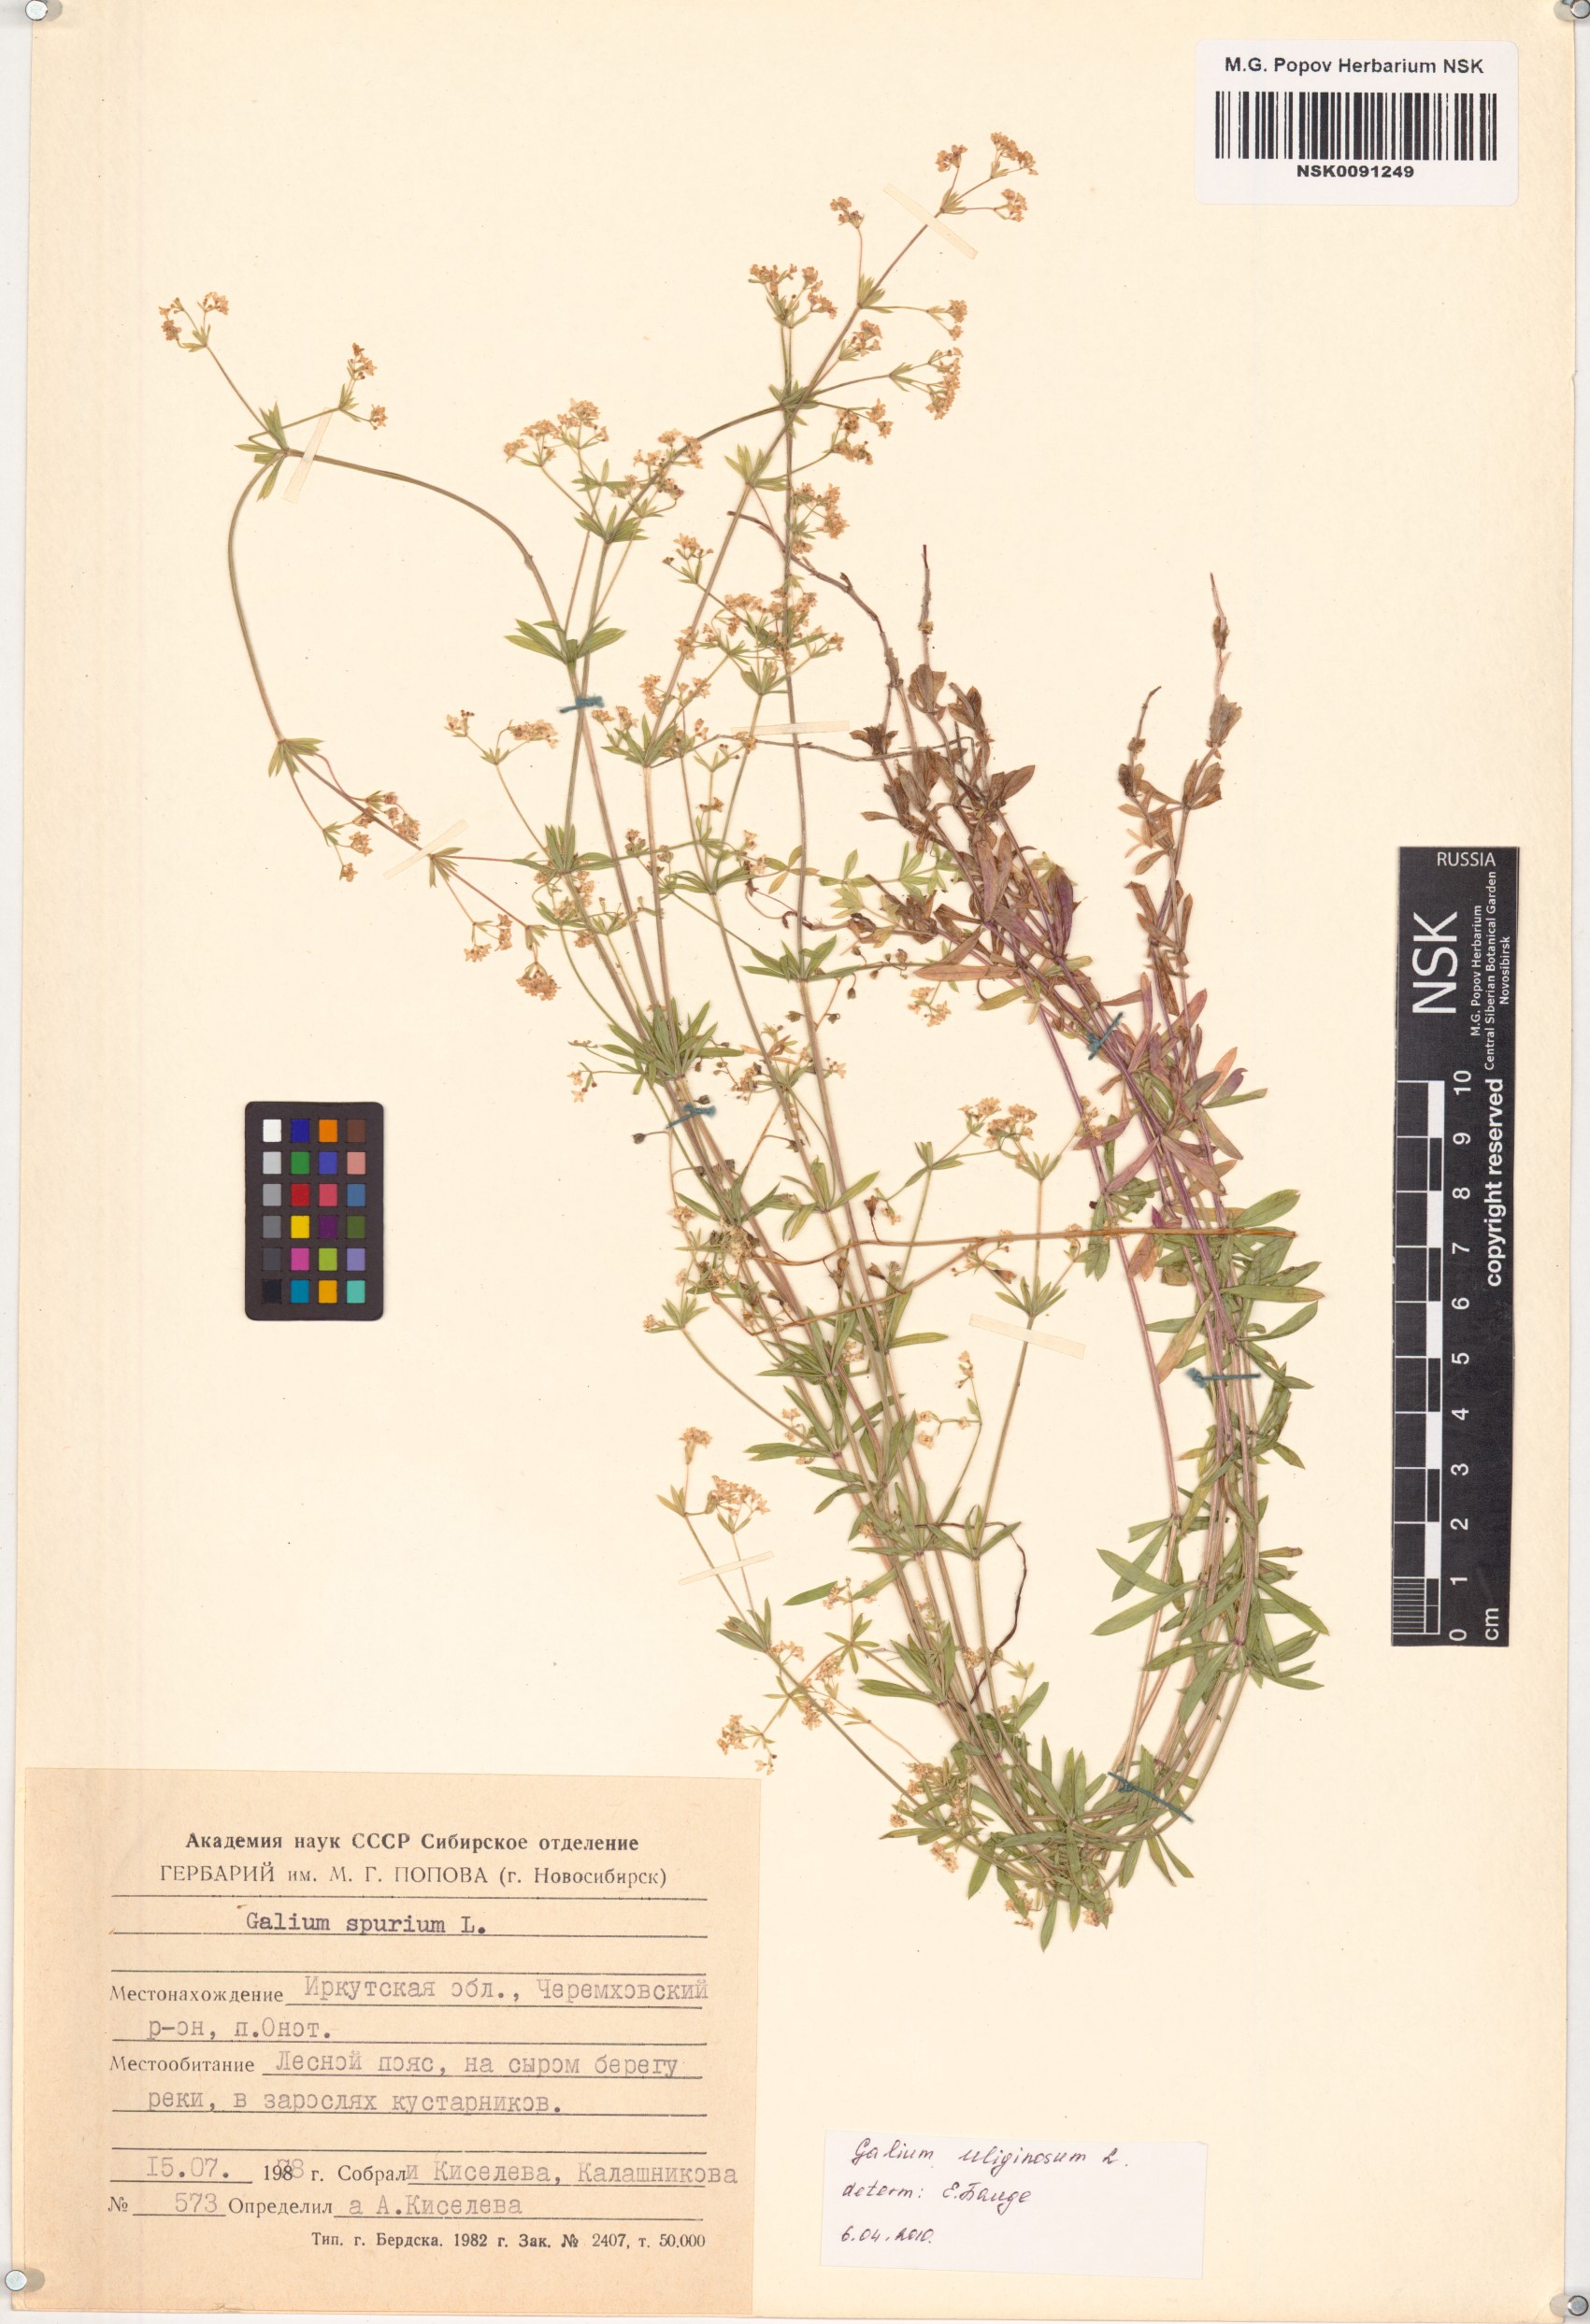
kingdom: Plantae
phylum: Tracheophyta
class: Magnoliopsida
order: Gentianales
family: Rubiaceae
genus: Galium
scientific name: Galium uliginosum
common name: Fen bedstraw
